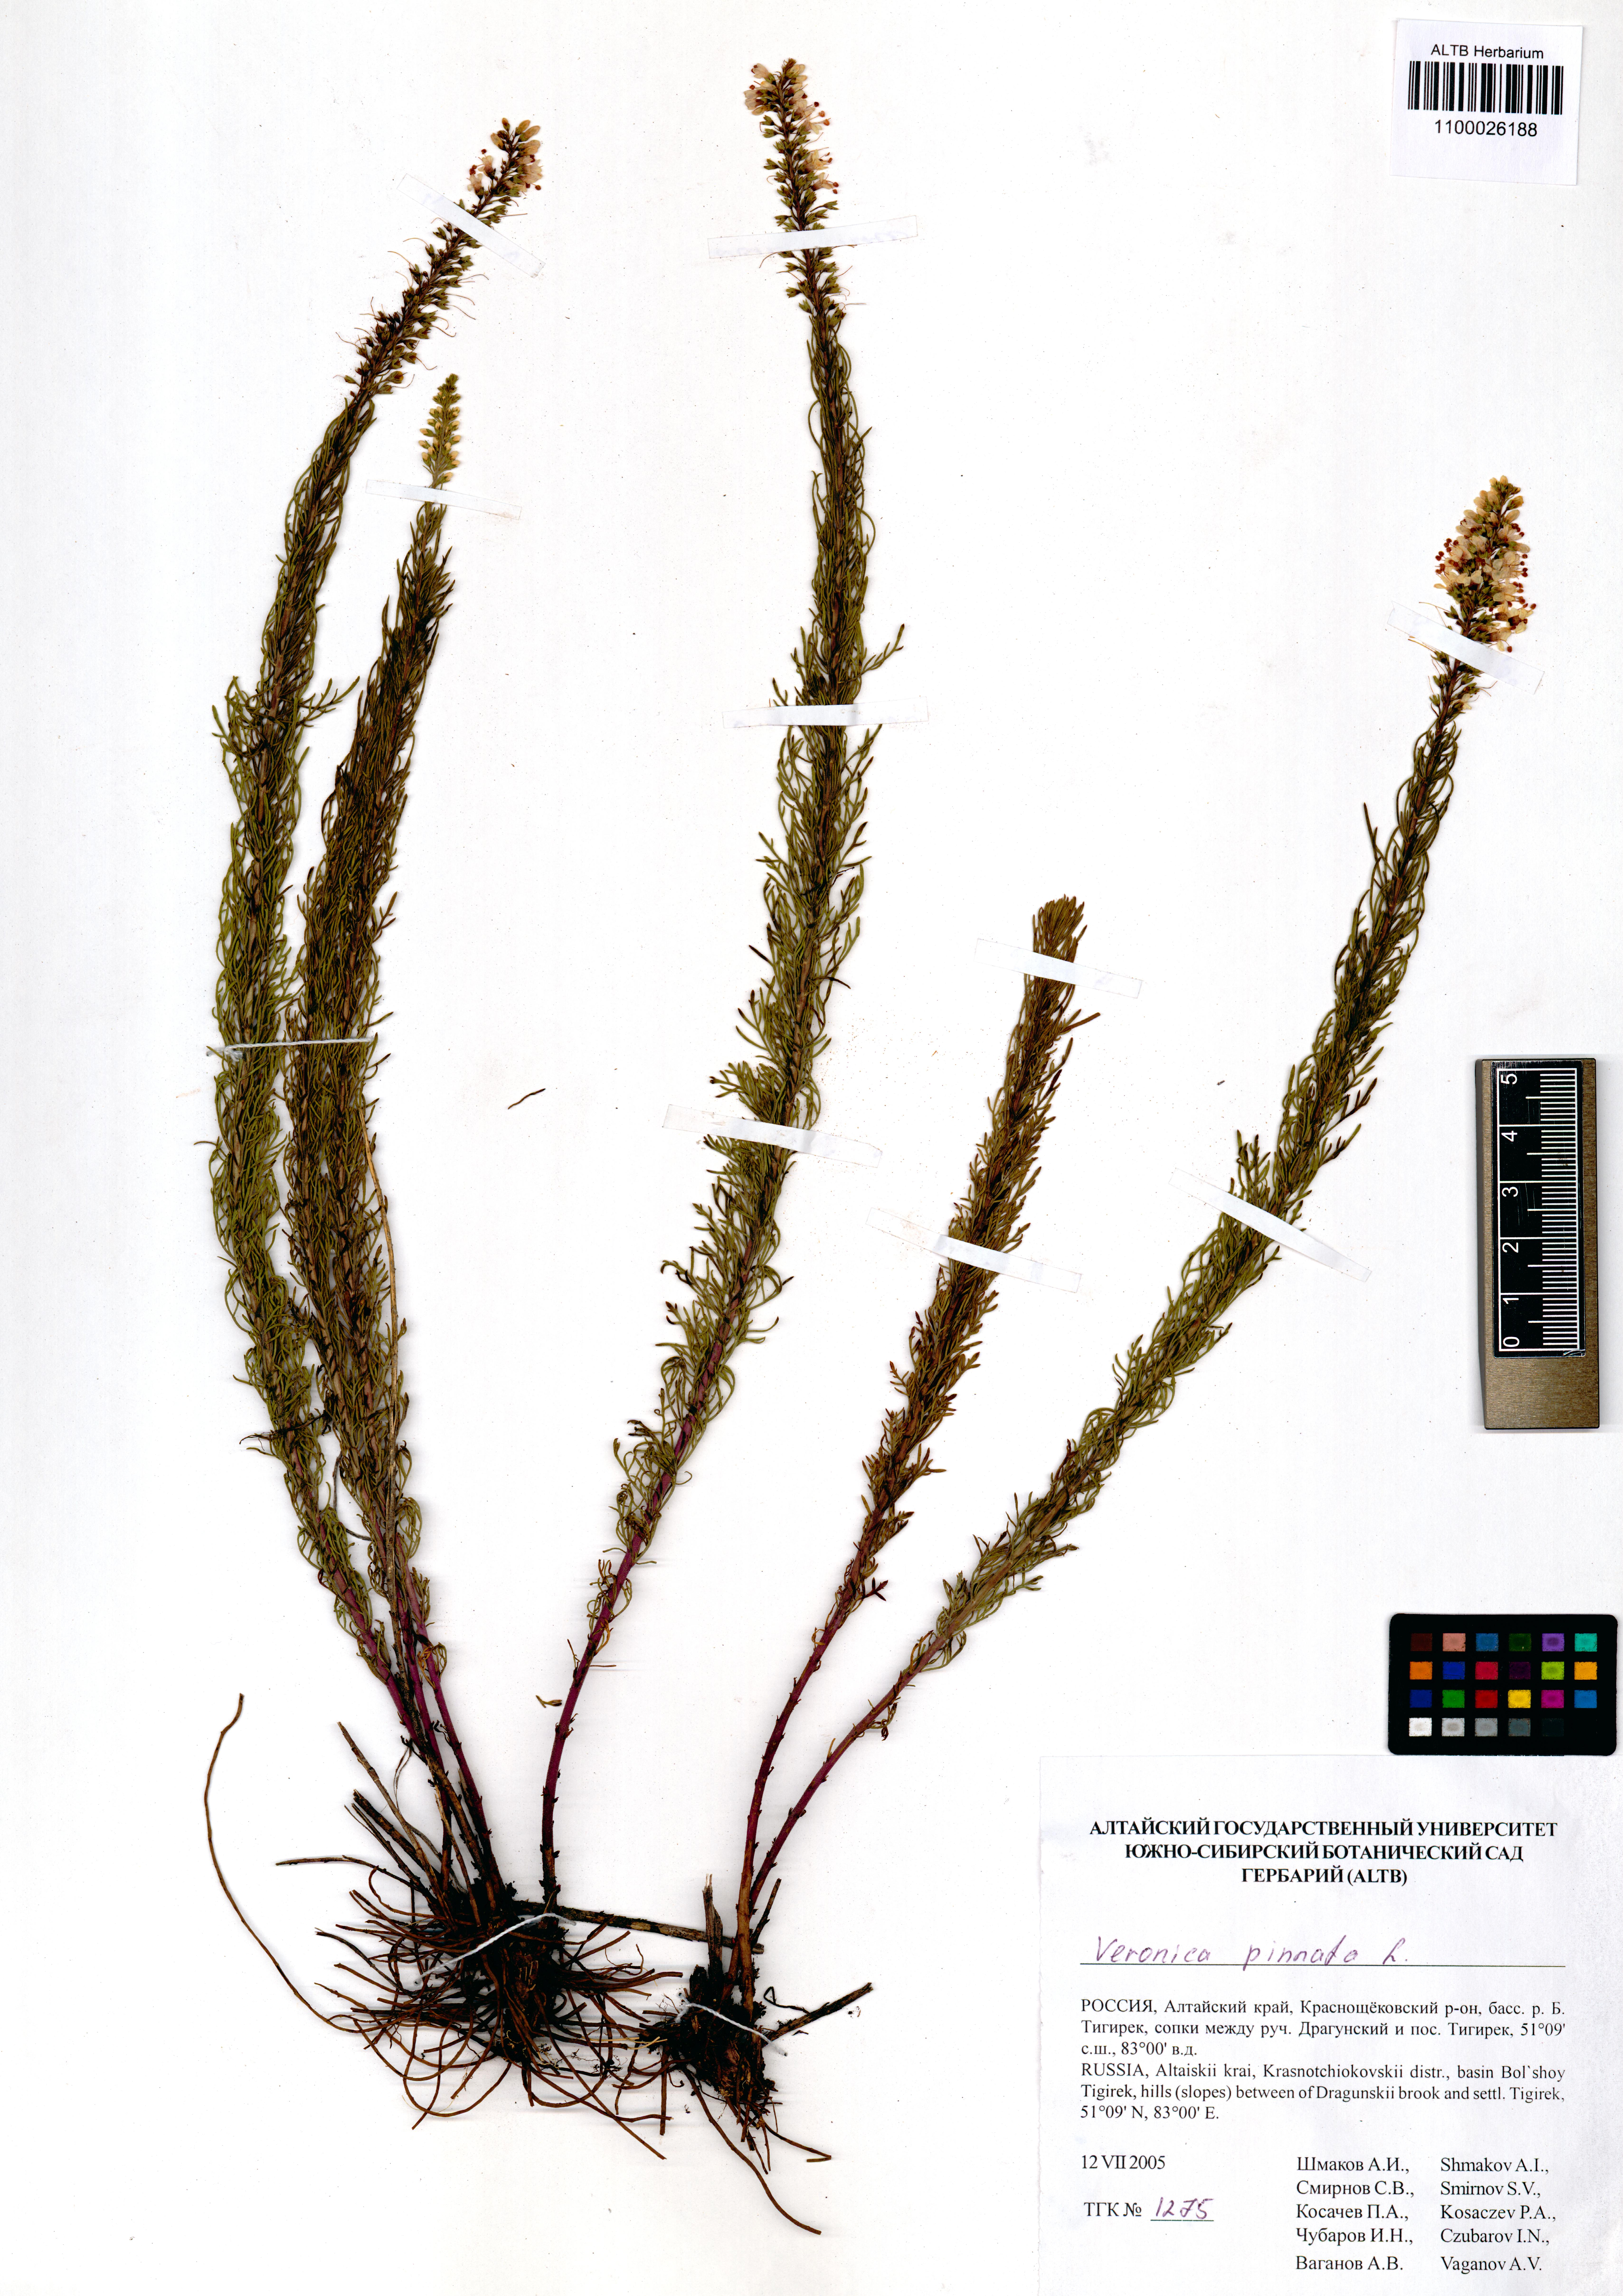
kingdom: Plantae
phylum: Tracheophyta
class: Magnoliopsida
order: Lamiales
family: Plantaginaceae
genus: Veronica
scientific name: Veronica pinnata
